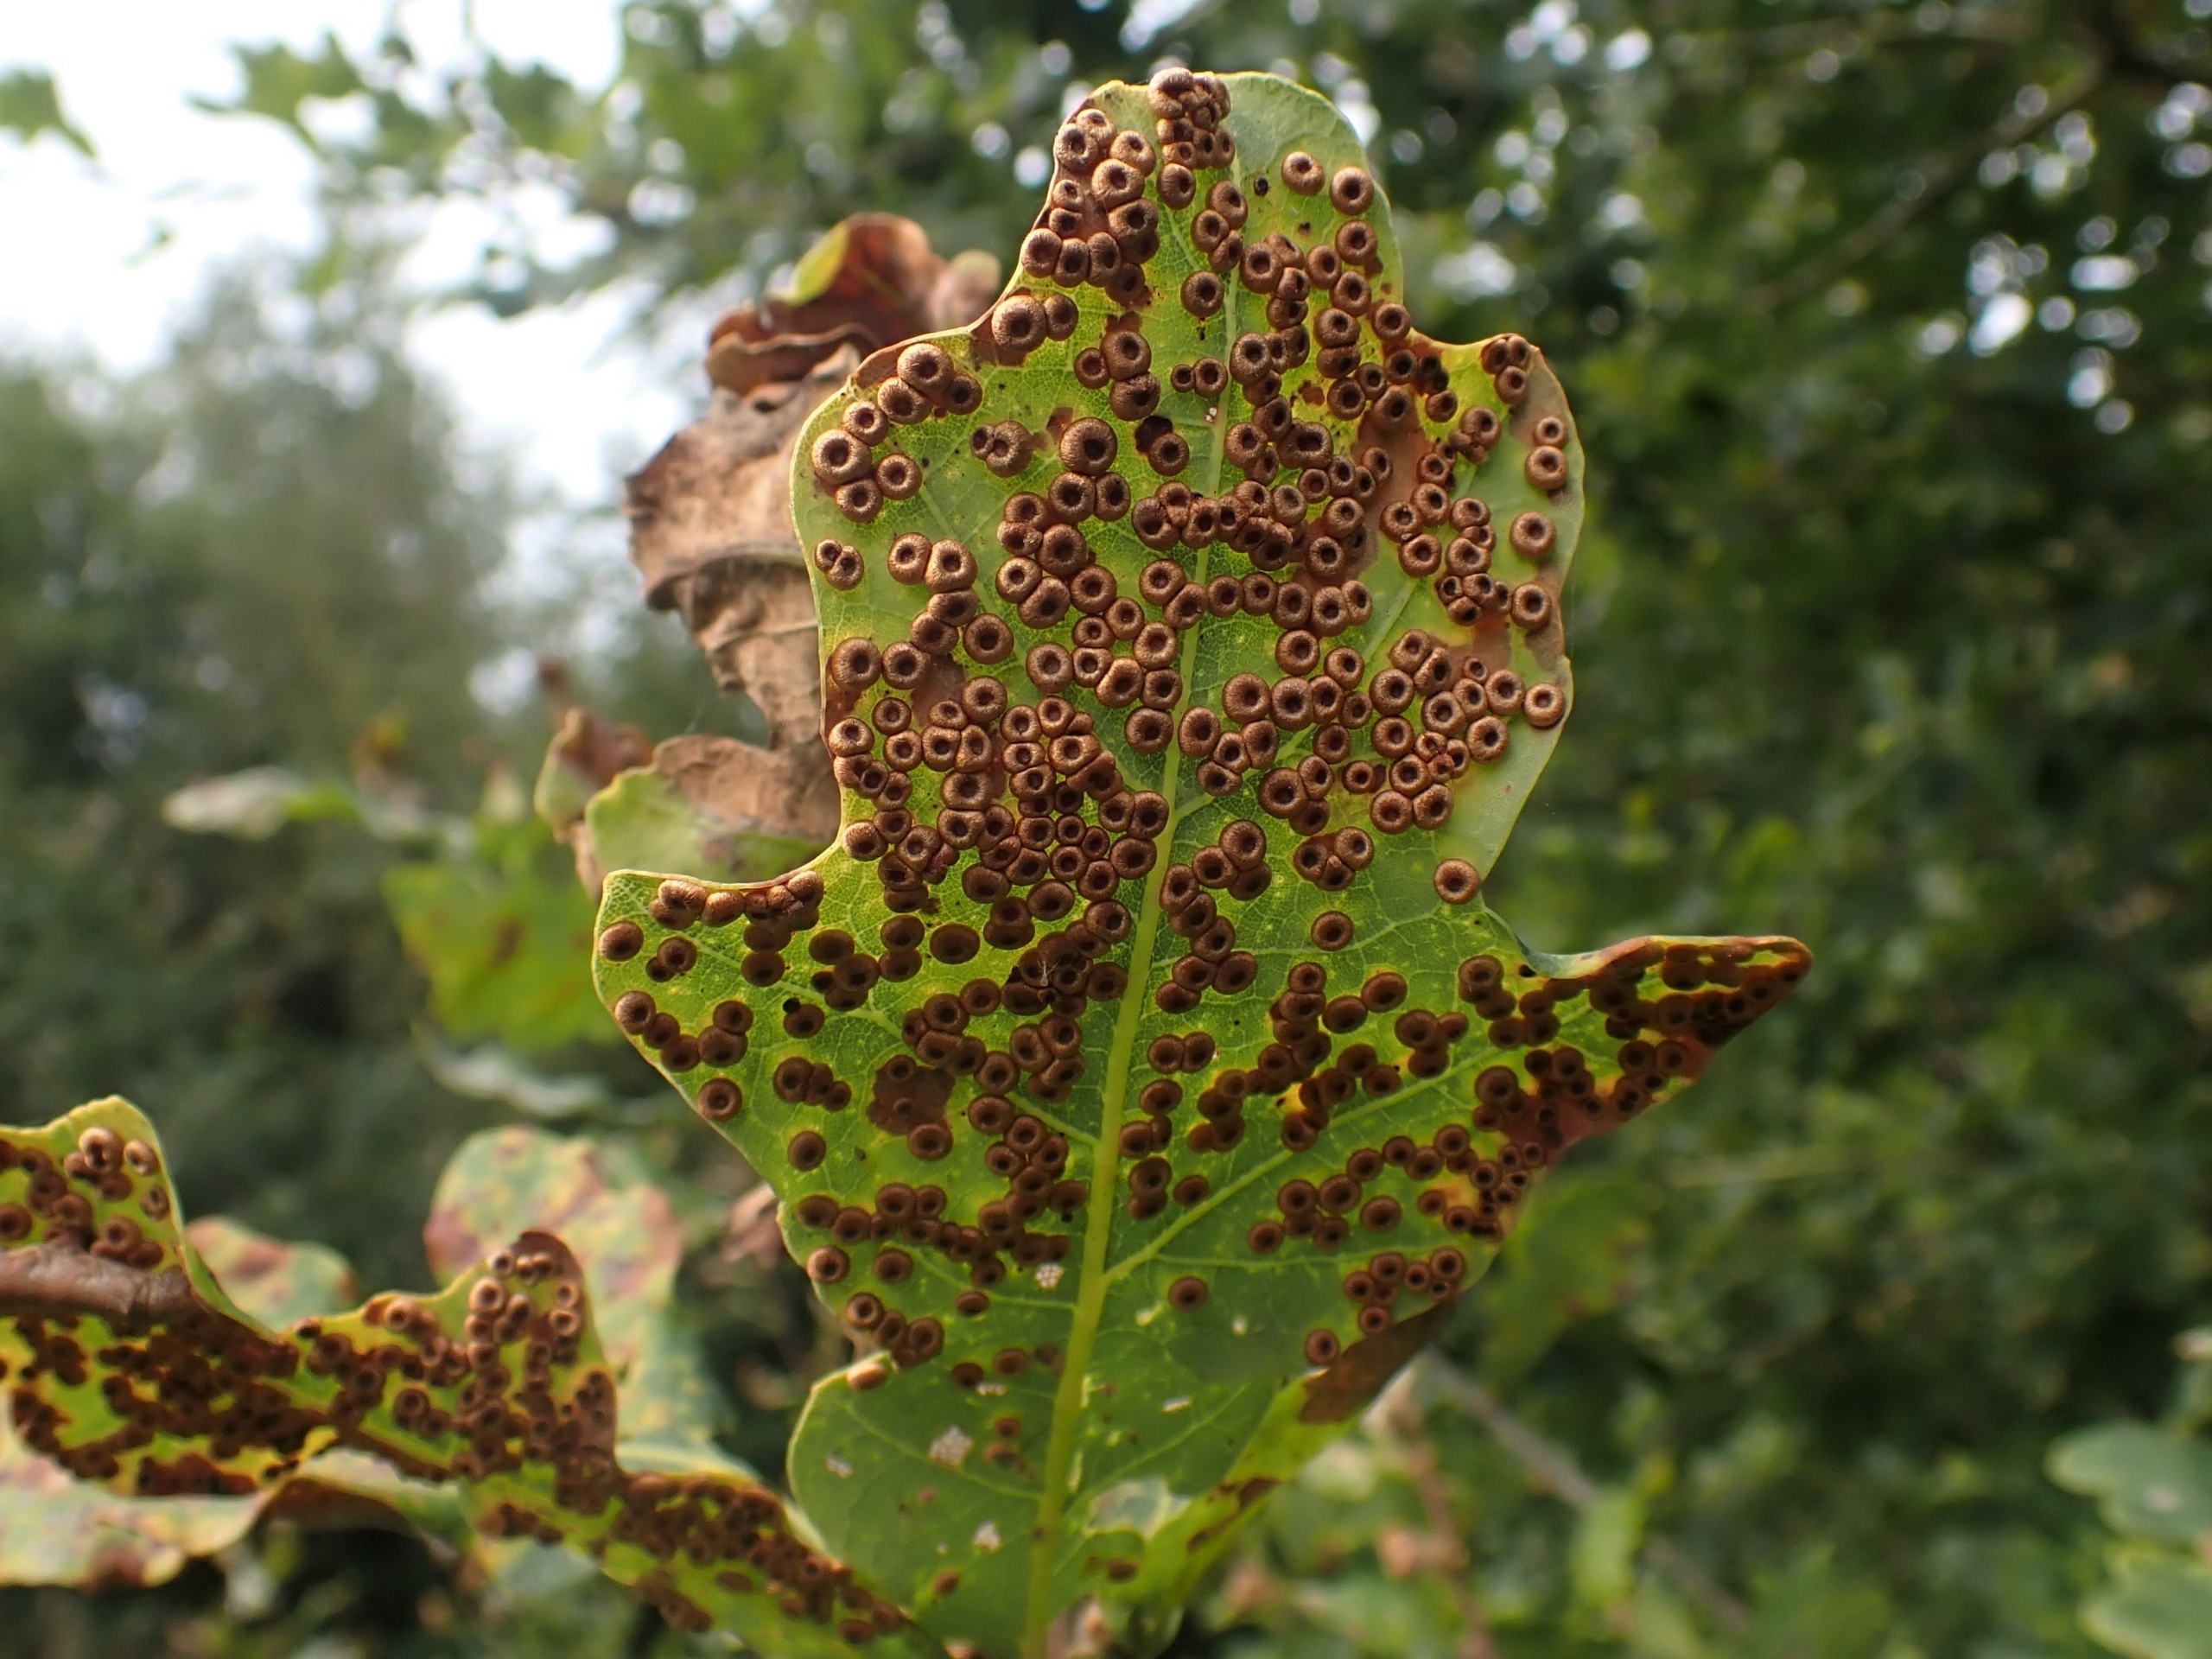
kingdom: Animalia
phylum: Arthropoda
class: Insecta
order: Hymenoptera
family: Cynipidae
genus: Neuroterus
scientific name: Neuroterus numismalis
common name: Knapgalhveps
